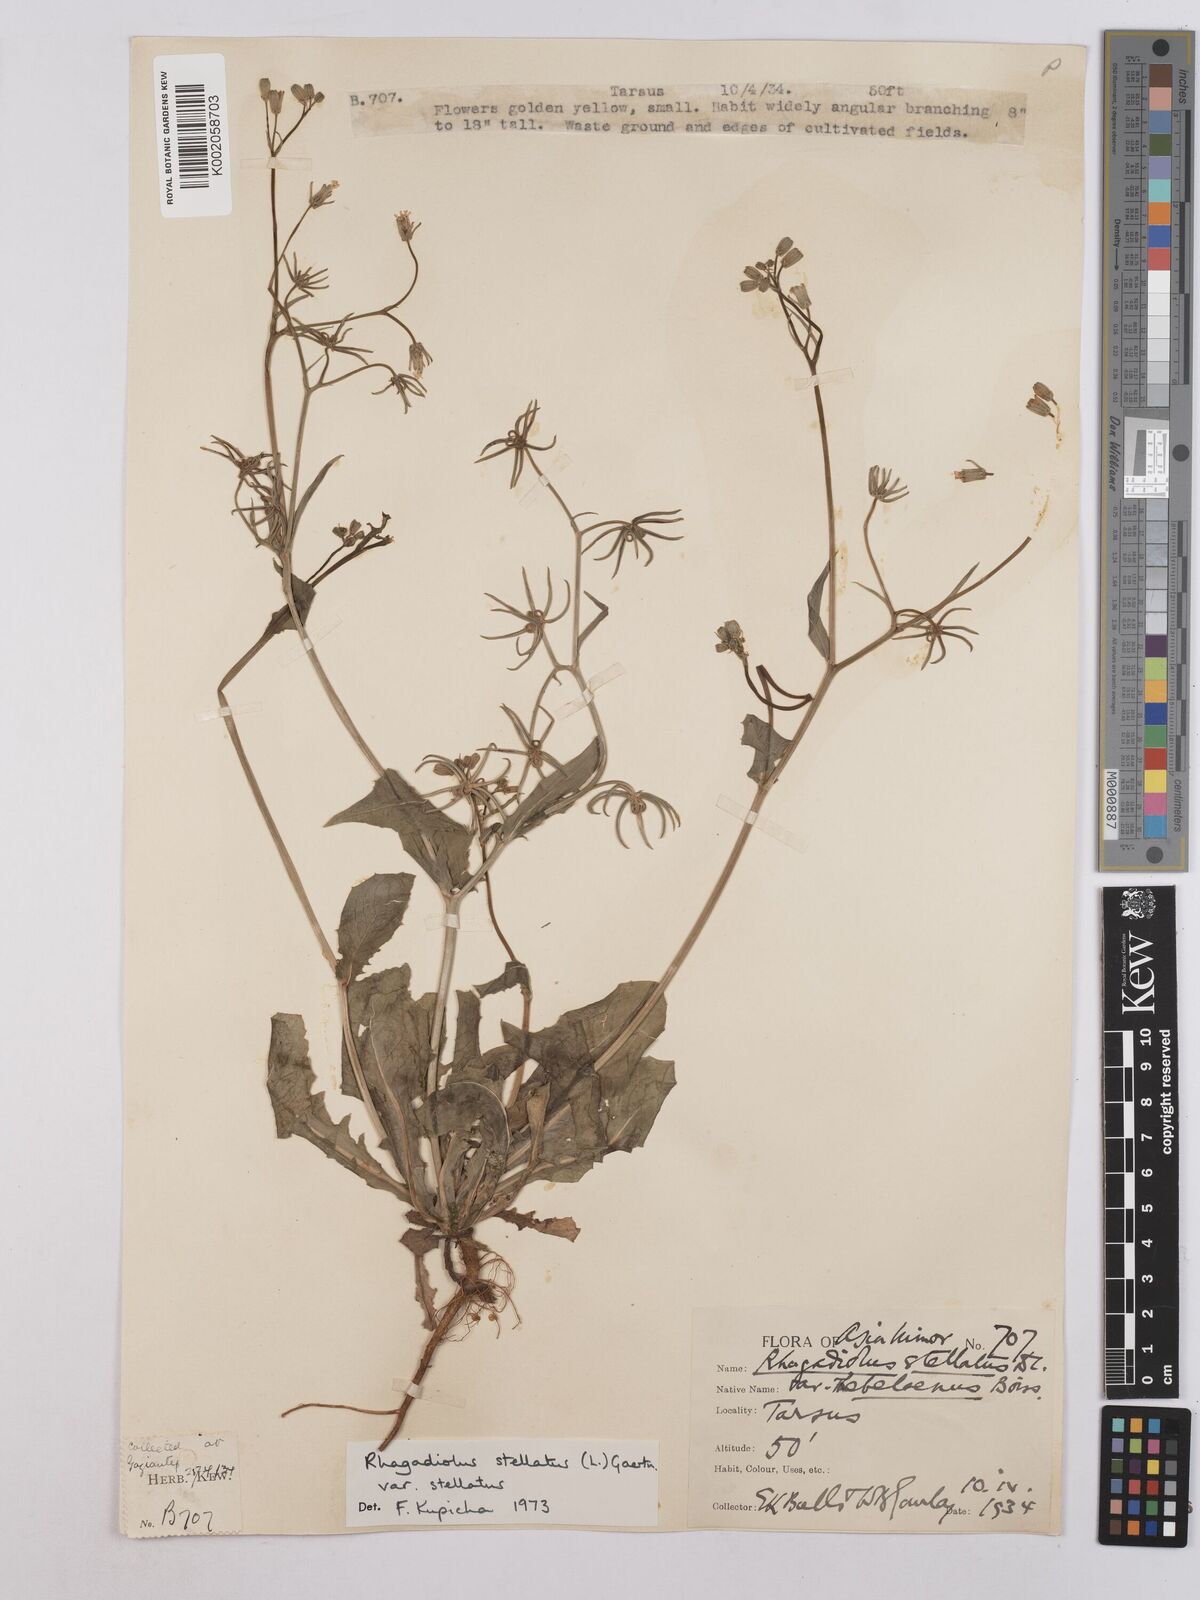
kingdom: Plantae
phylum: Tracheophyta
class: Magnoliopsida
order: Asterales
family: Asteraceae
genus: Rhagadiolus
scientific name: Rhagadiolus stellatus
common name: Star hawkbit
